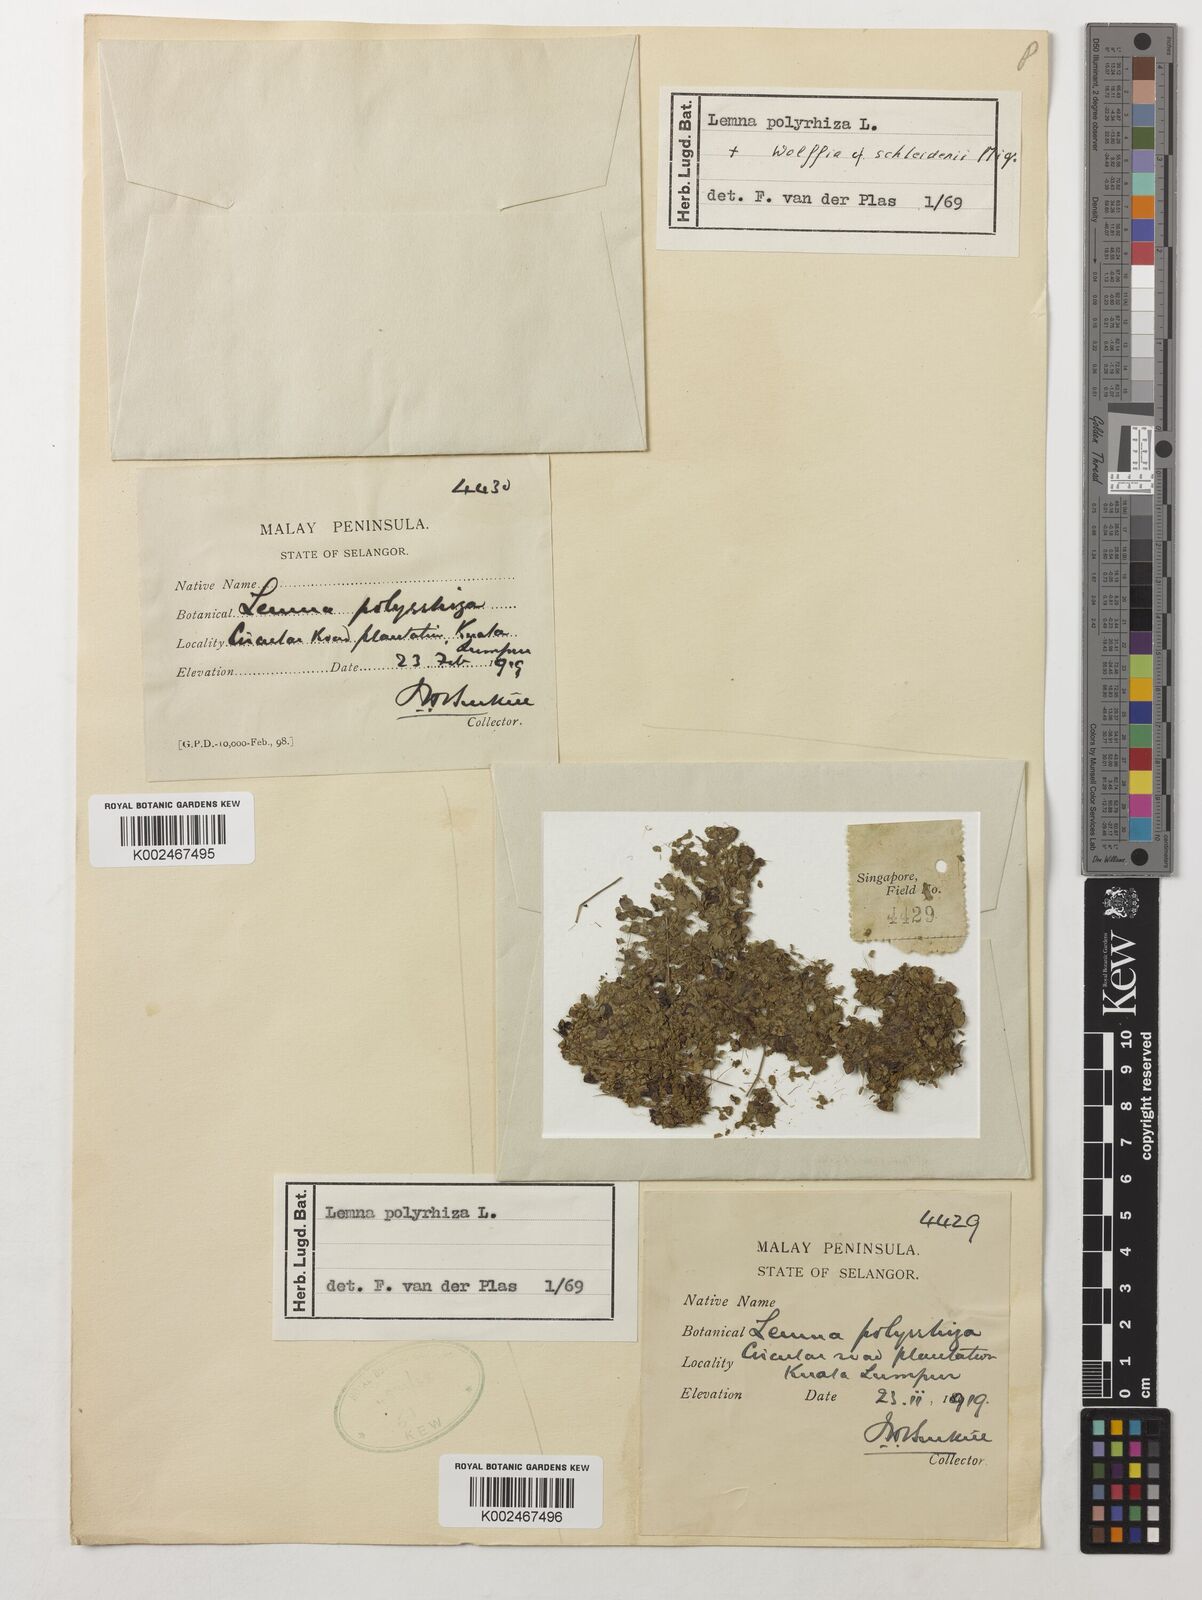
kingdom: Plantae
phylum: Tracheophyta
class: Liliopsida
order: Alismatales
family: Araceae
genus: Spirodela
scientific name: Spirodela polyrhiza
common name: Great duckweed
